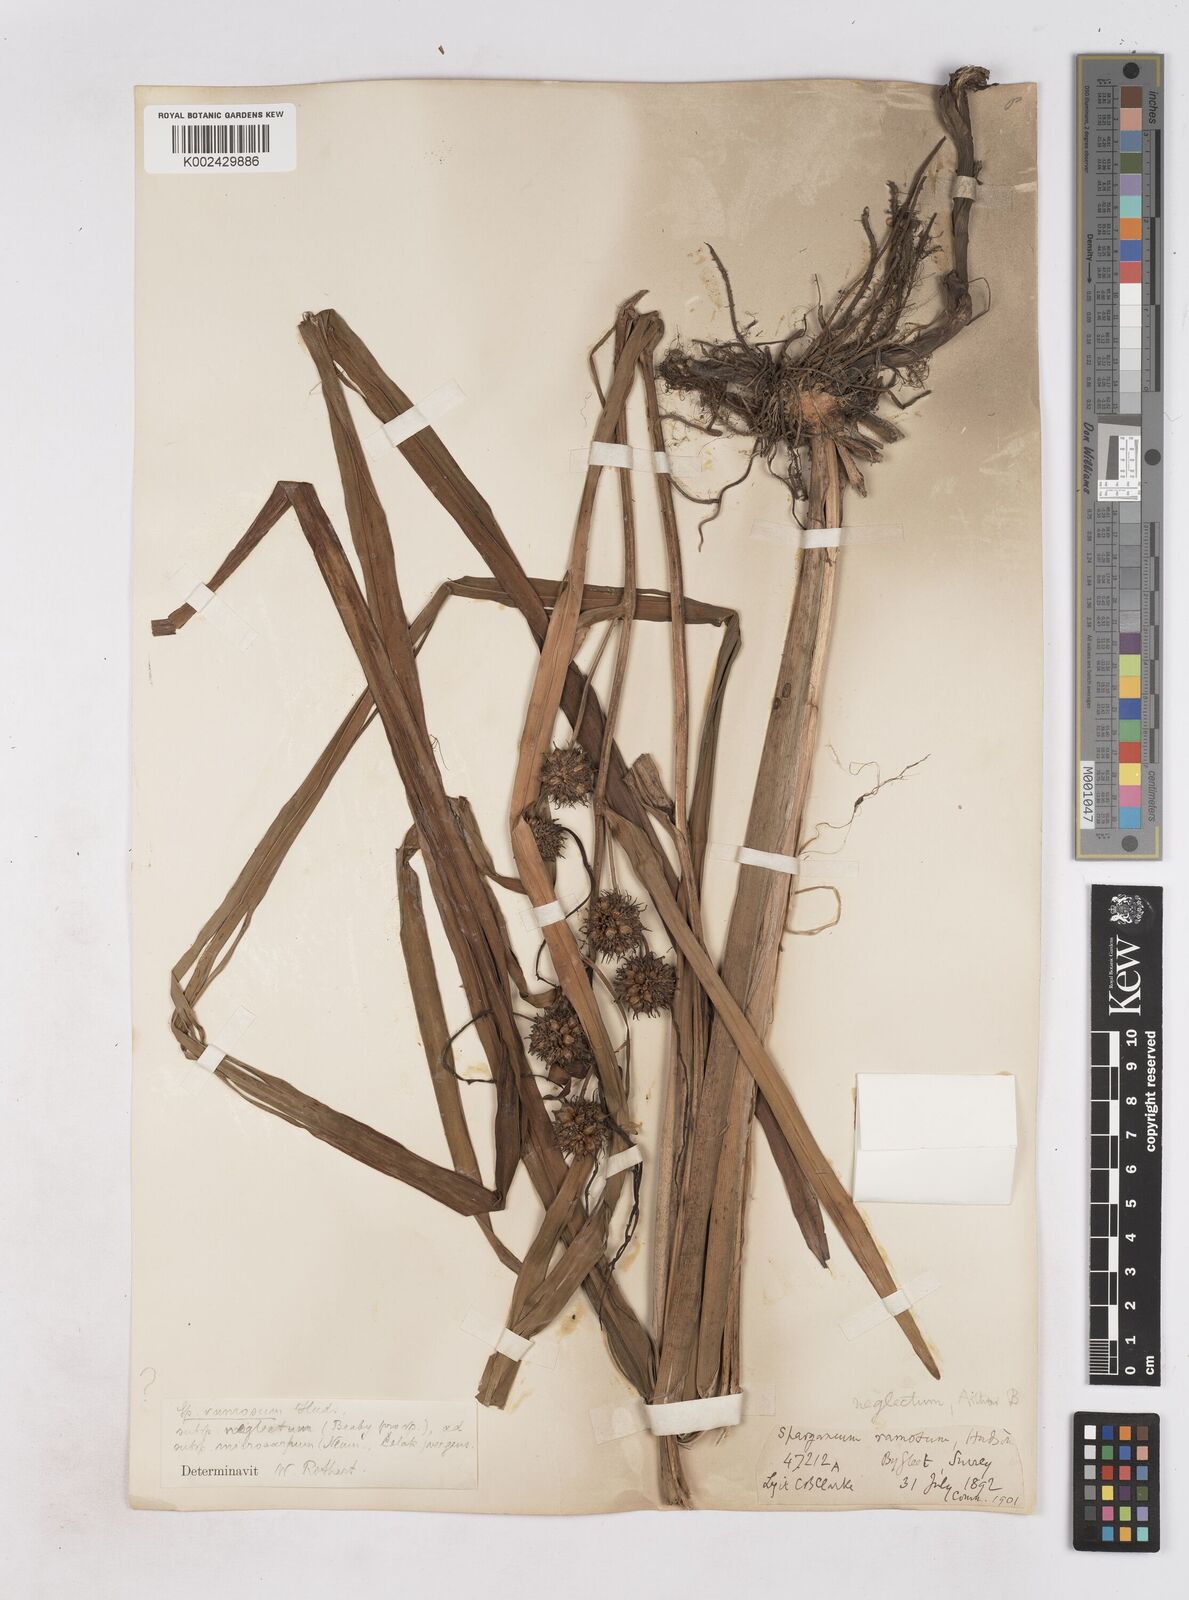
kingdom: Plantae
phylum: Tracheophyta
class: Liliopsida
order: Poales
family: Typhaceae
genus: Sparganium
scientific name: Sparganium erectum
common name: Branched bur-reed
